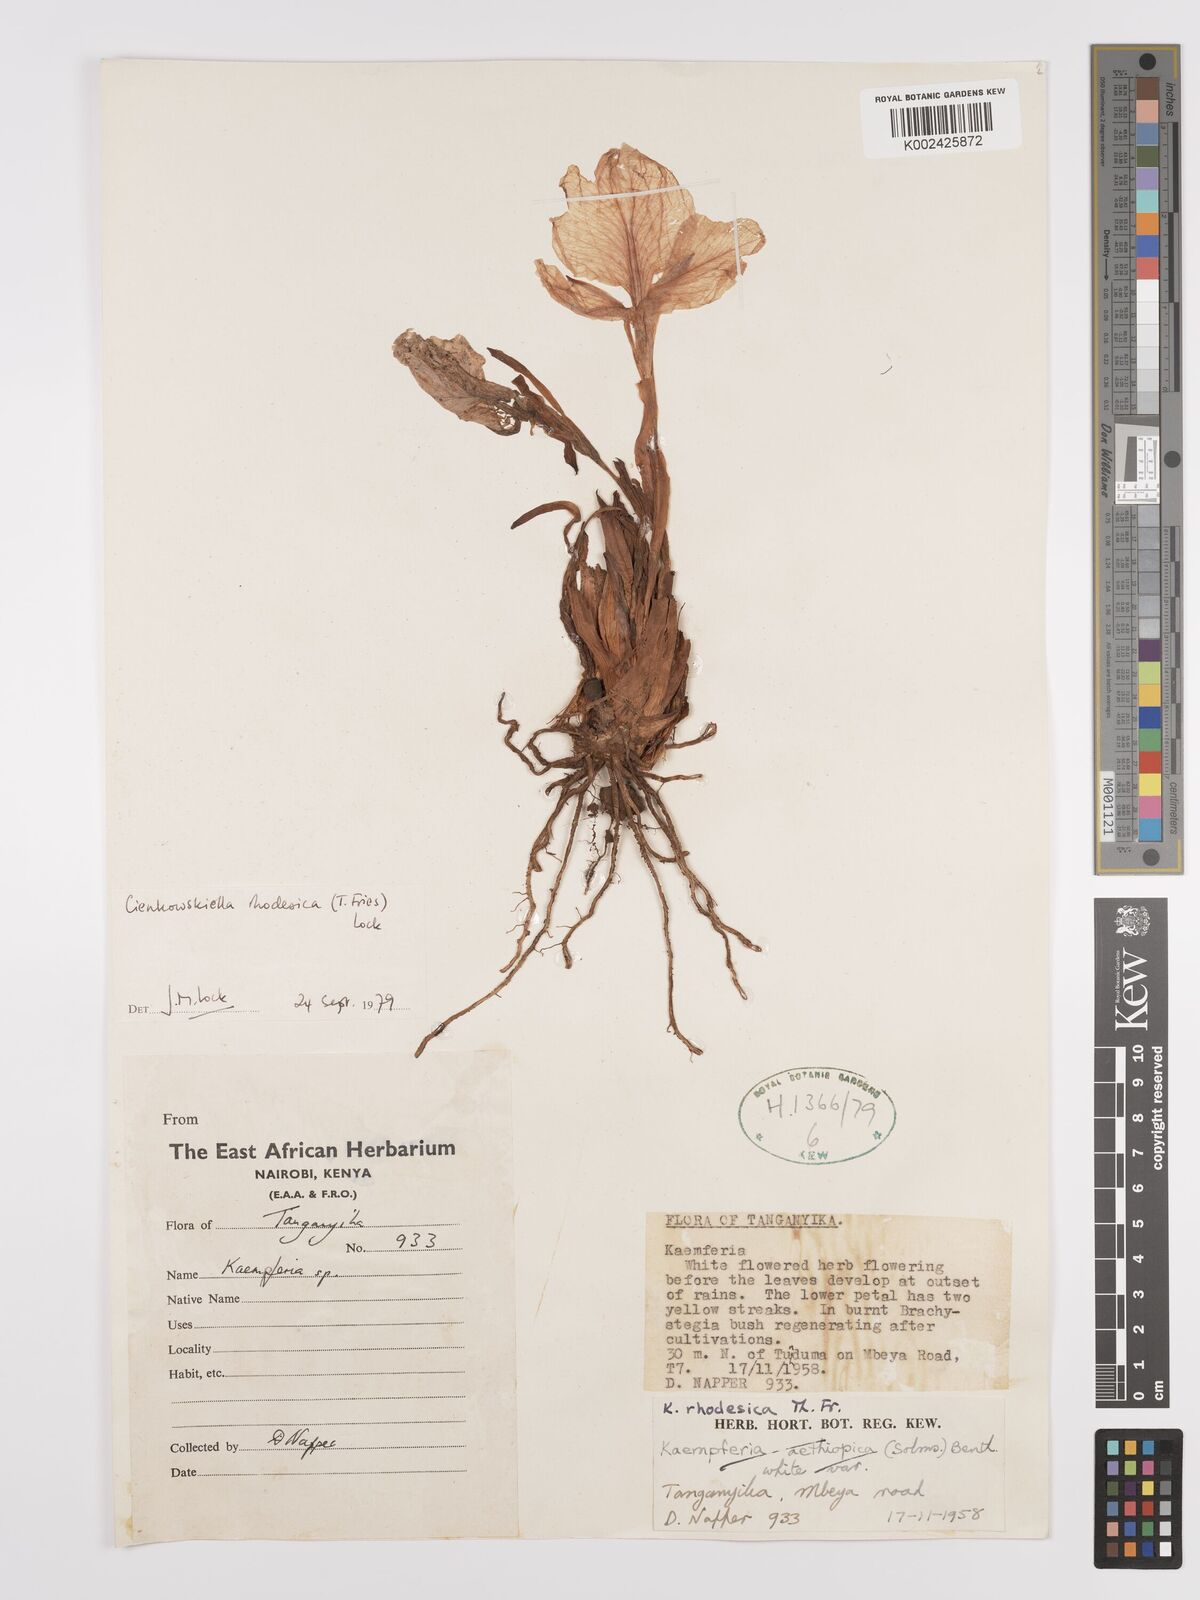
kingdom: Plantae
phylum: Tracheophyta
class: Liliopsida
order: Zingiberales
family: Zingiberaceae
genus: Siphonochilus
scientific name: Siphonochilus rhodesicus
